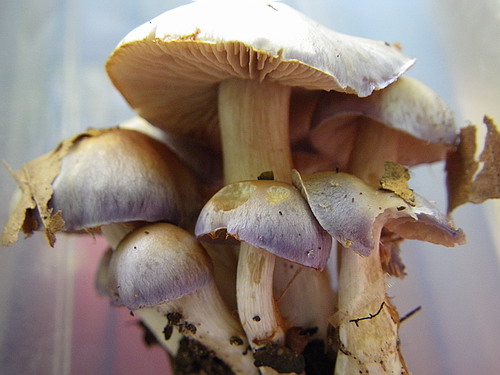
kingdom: Fungi
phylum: Basidiomycota
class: Agaricomycetes
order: Agaricales
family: Cortinariaceae
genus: Thaxterogaster
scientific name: Thaxterogaster croceocoeruleus
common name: blågullig slørhat
